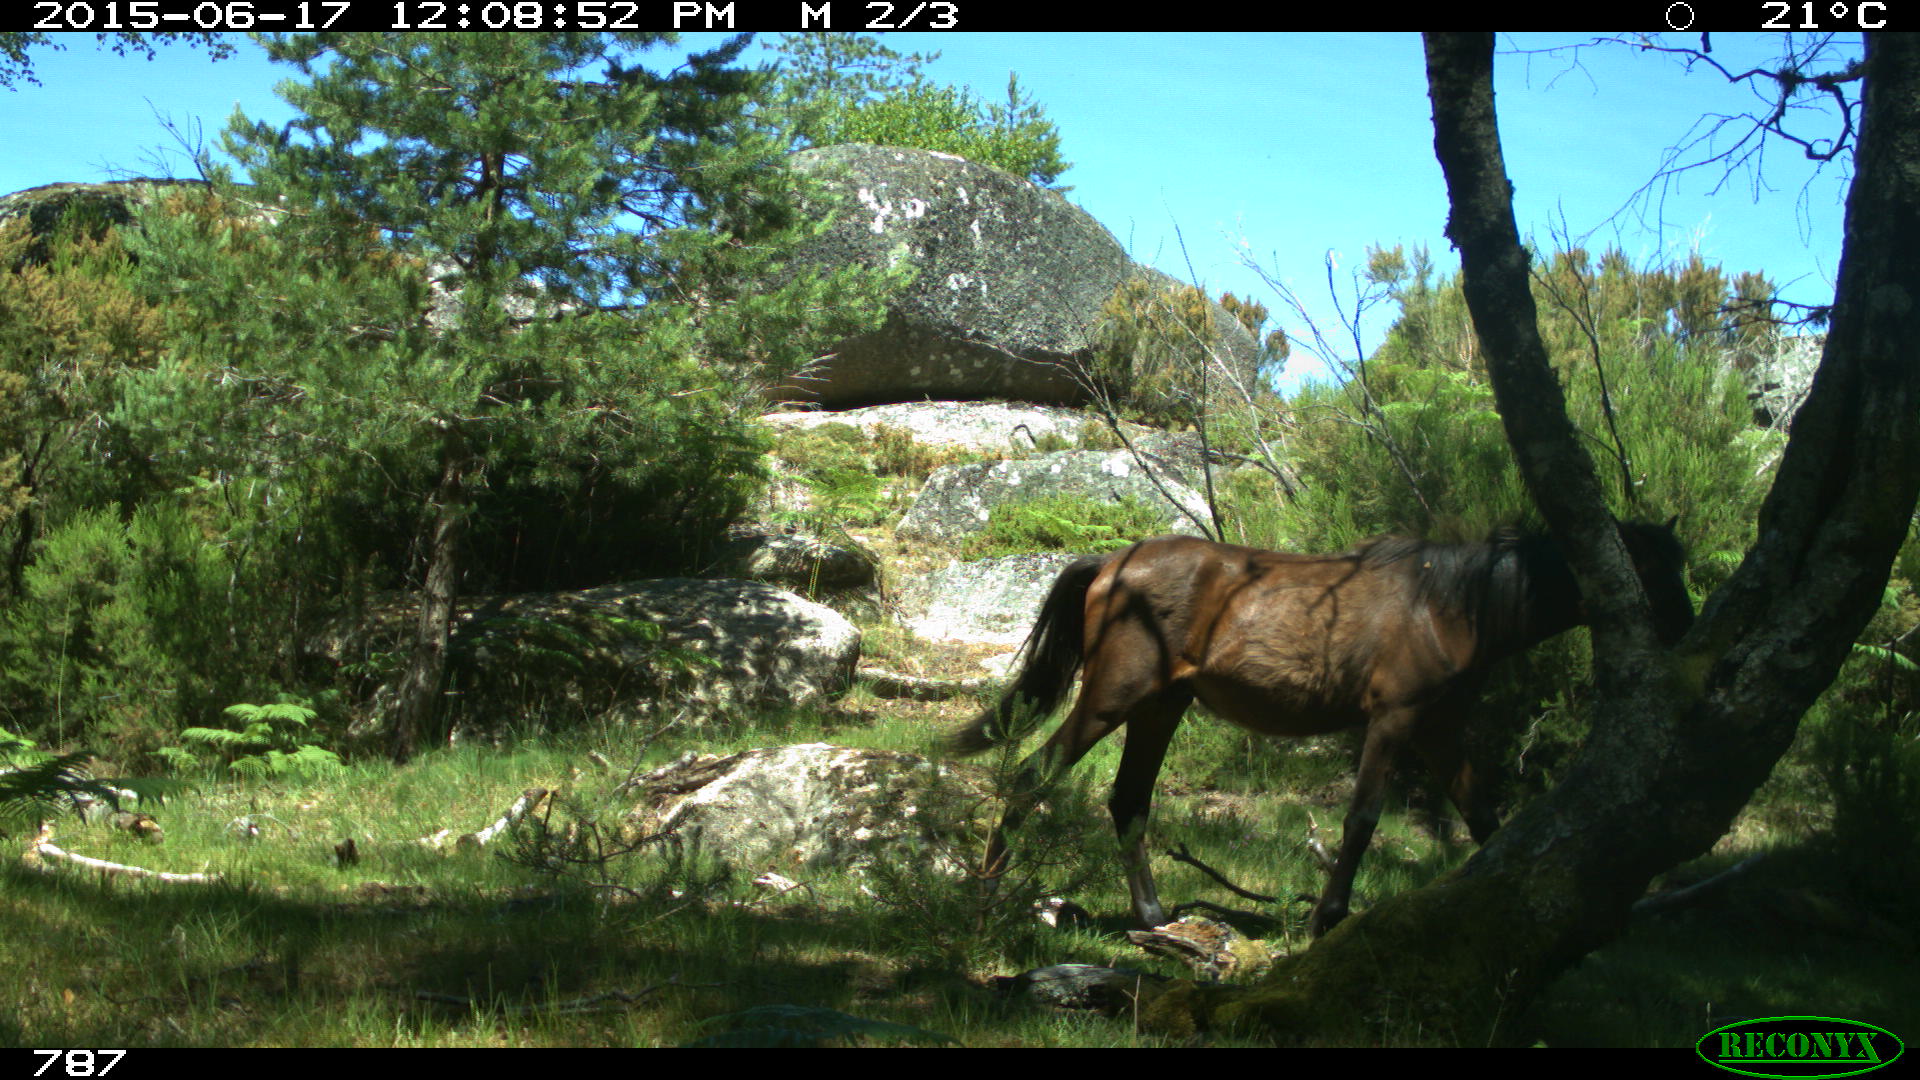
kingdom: Animalia
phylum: Chordata
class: Mammalia
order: Perissodactyla
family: Equidae
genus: Equus
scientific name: Equus caballus
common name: Horse
